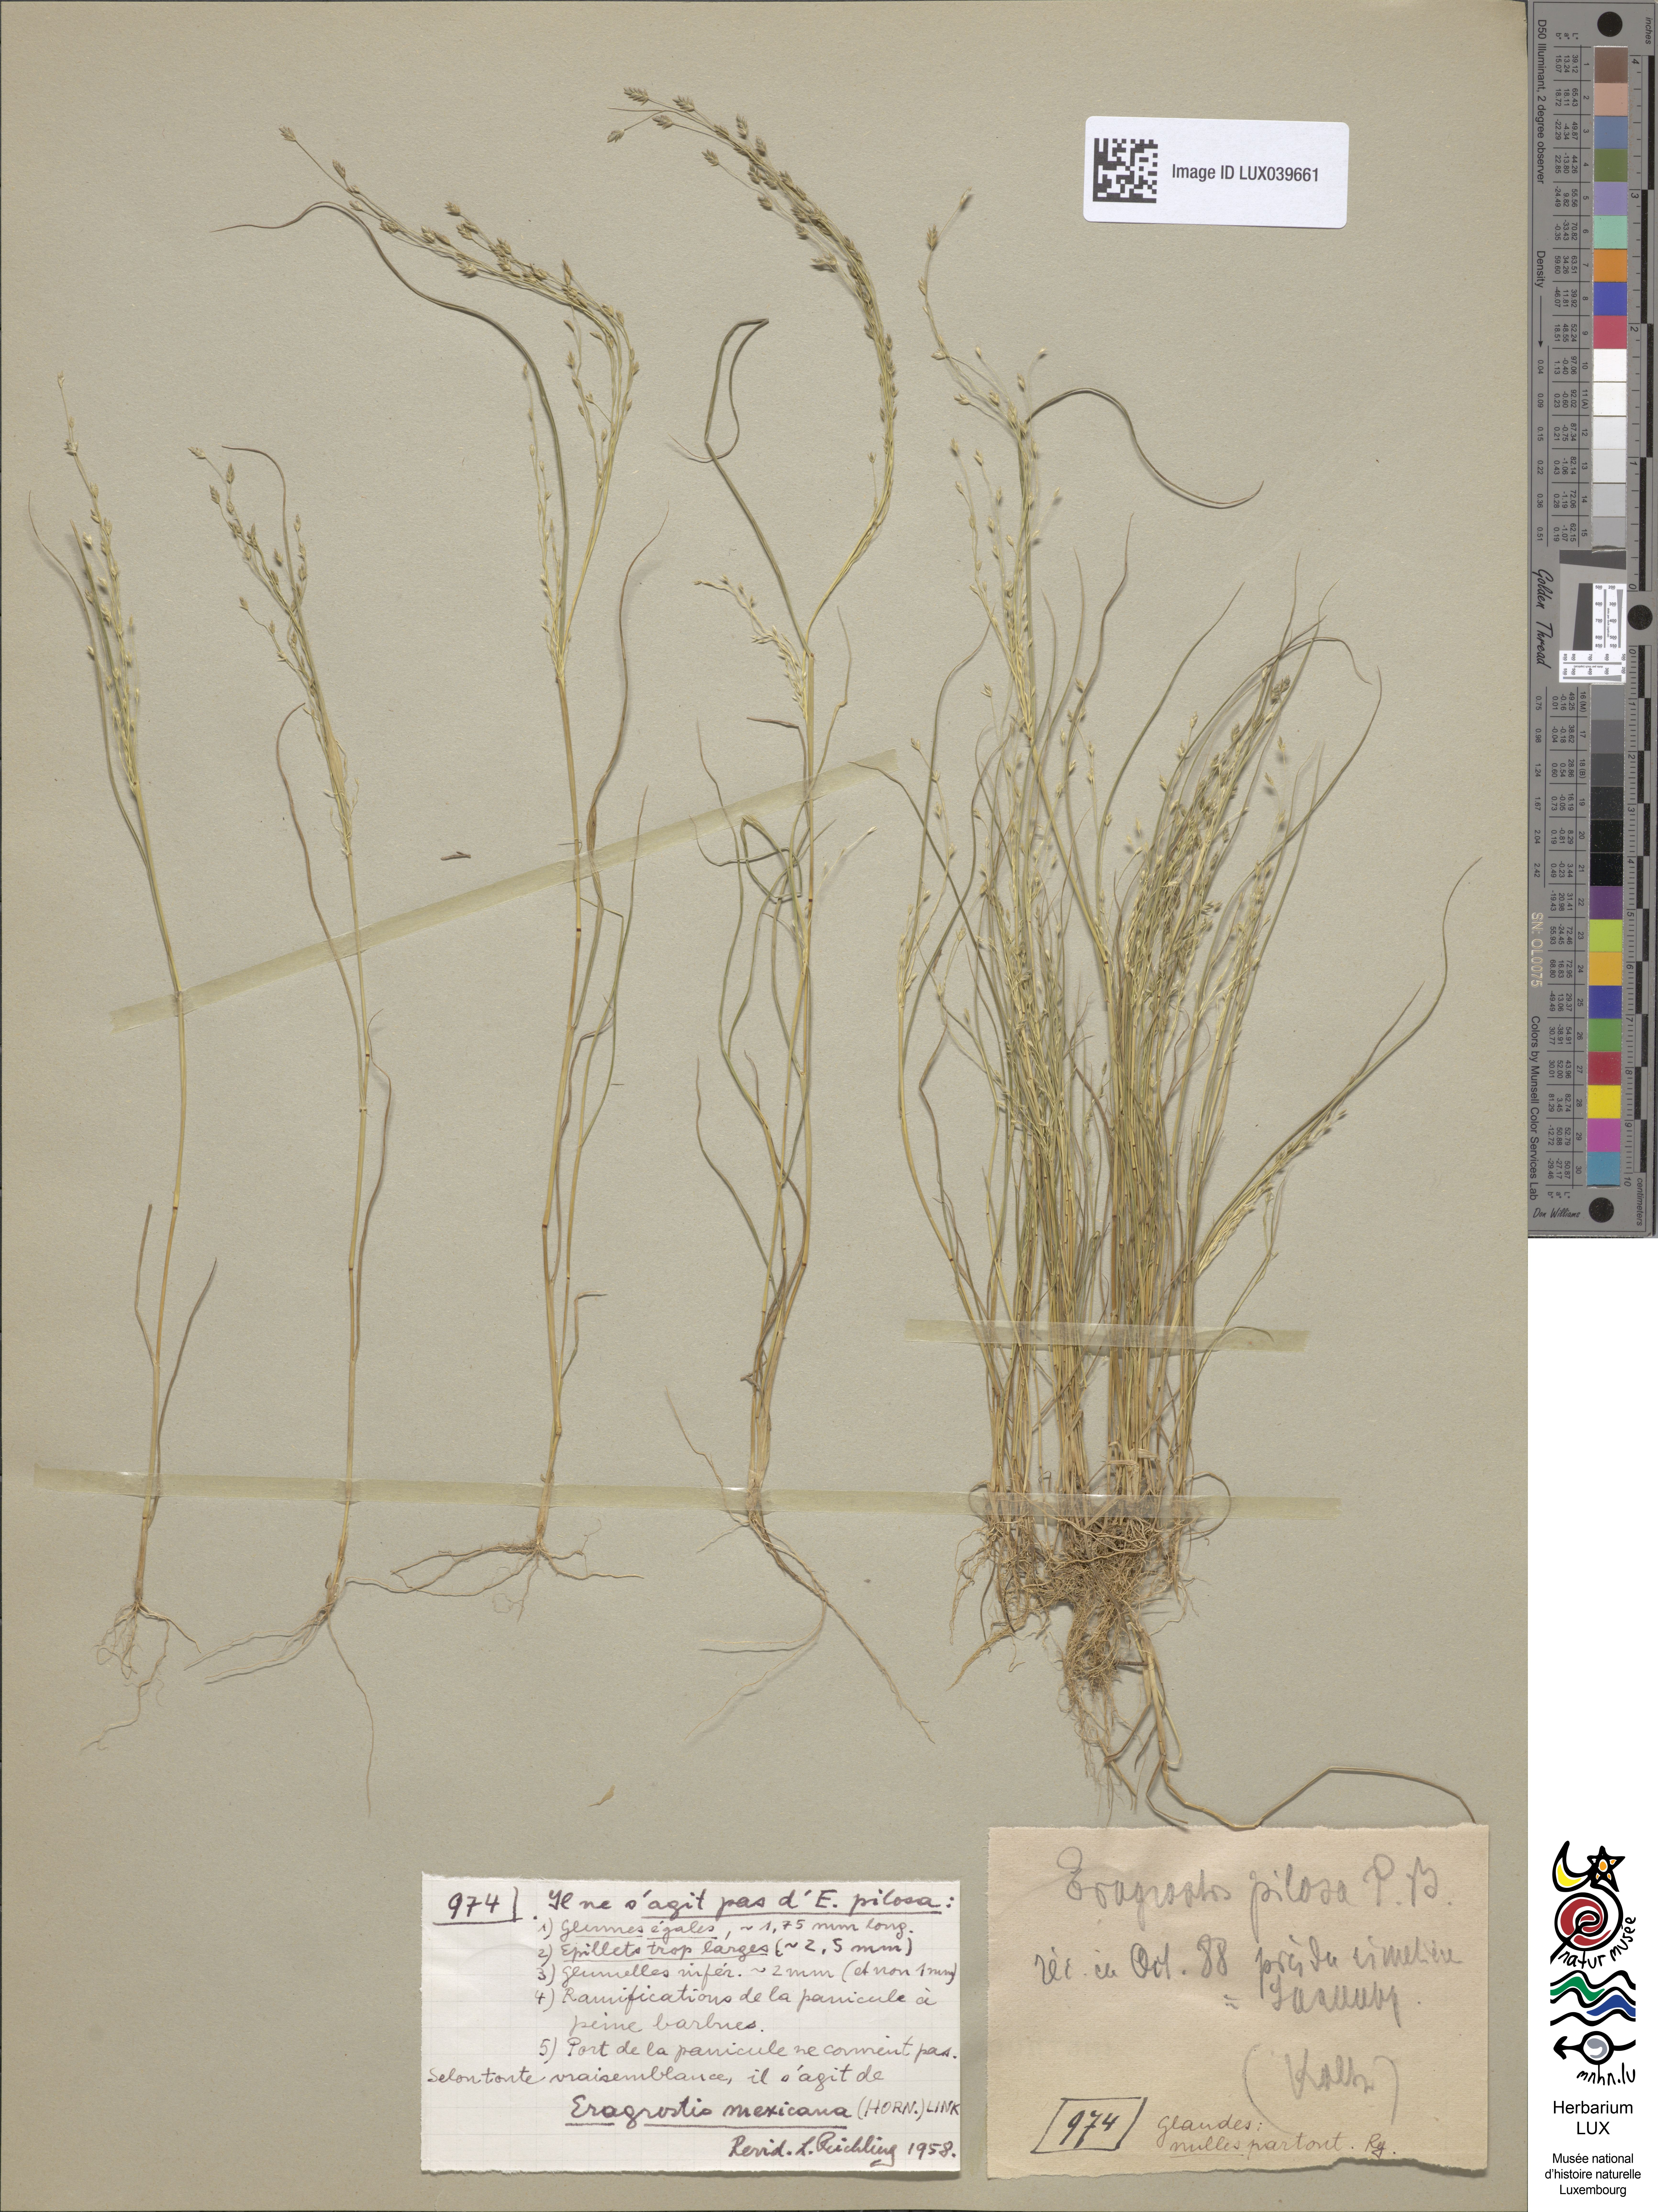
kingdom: Plantae
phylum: Tracheophyta
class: Liliopsida
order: Poales
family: Poaceae
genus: Eragrostis
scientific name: Eragrostis mexicana
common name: Mexican love grass
